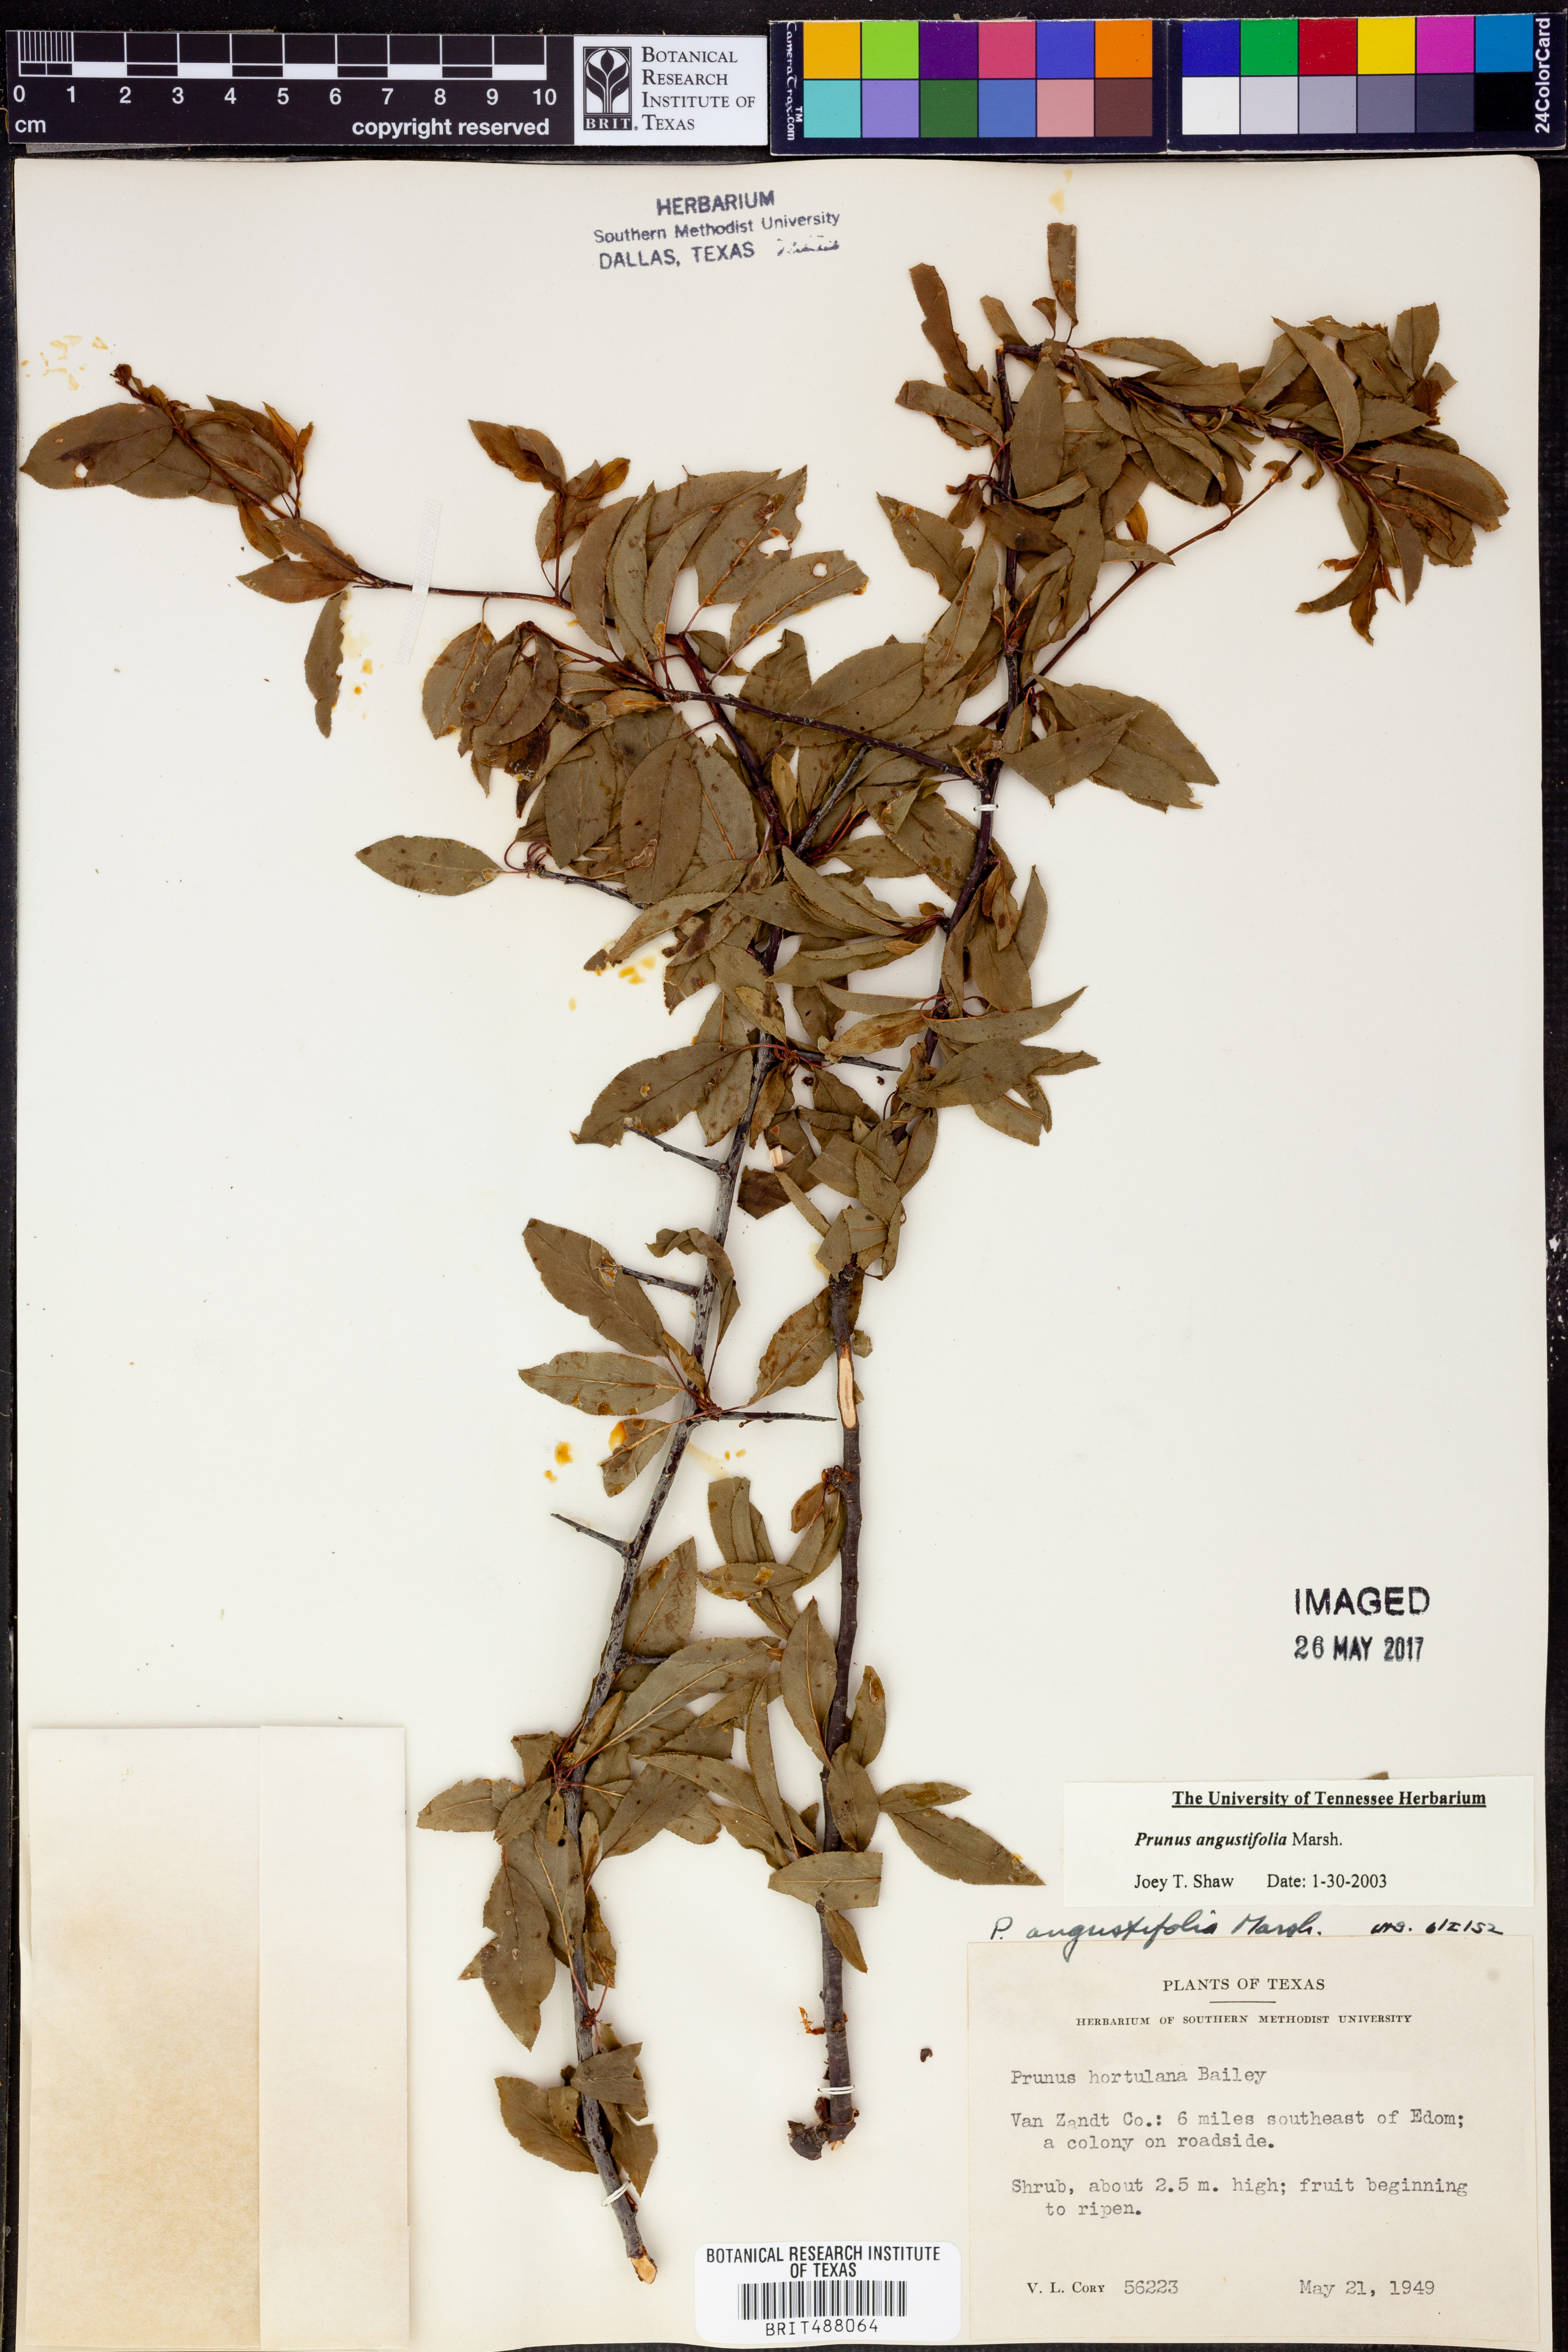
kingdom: Plantae
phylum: Tracheophyta
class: Magnoliopsida
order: Rosales
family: Rosaceae
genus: Prunus
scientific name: Prunus angustifolia
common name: Cherokee plum
